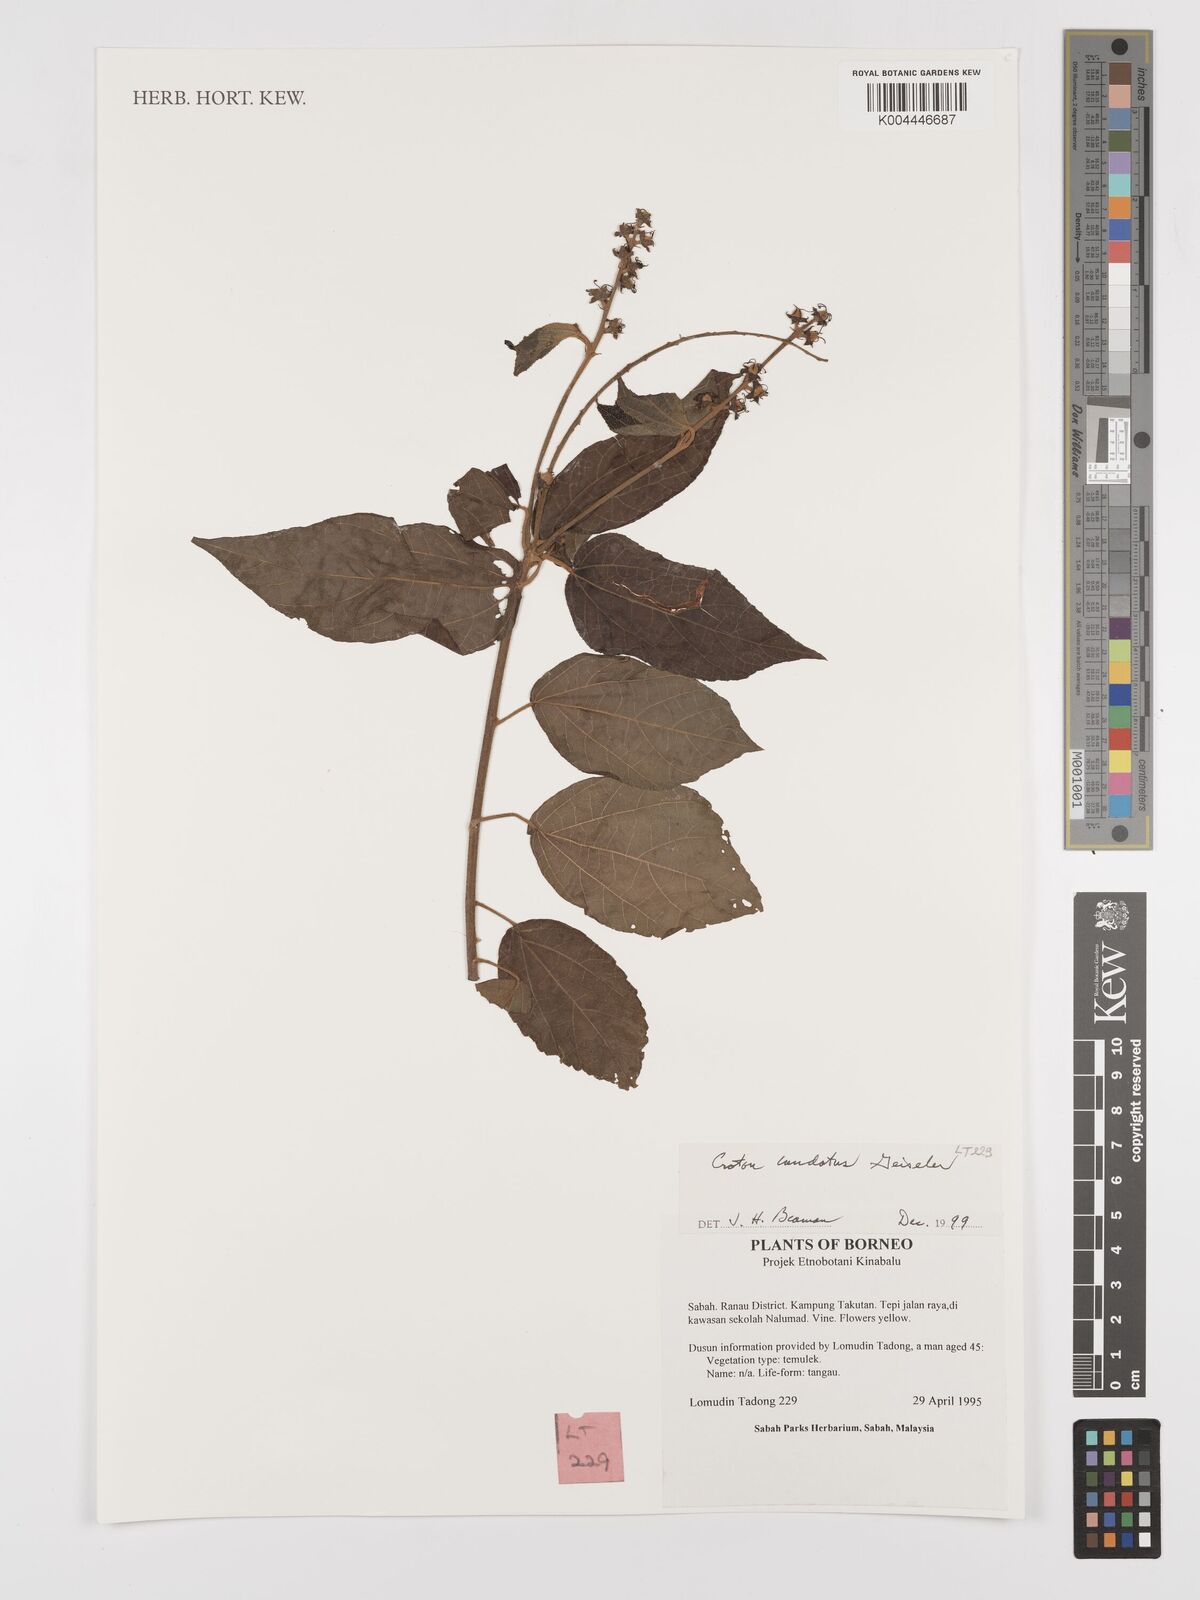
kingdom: Plantae
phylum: Tracheophyta
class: Magnoliopsida
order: Malpighiales
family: Euphorbiaceae
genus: Croton
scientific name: Croton caudatus
